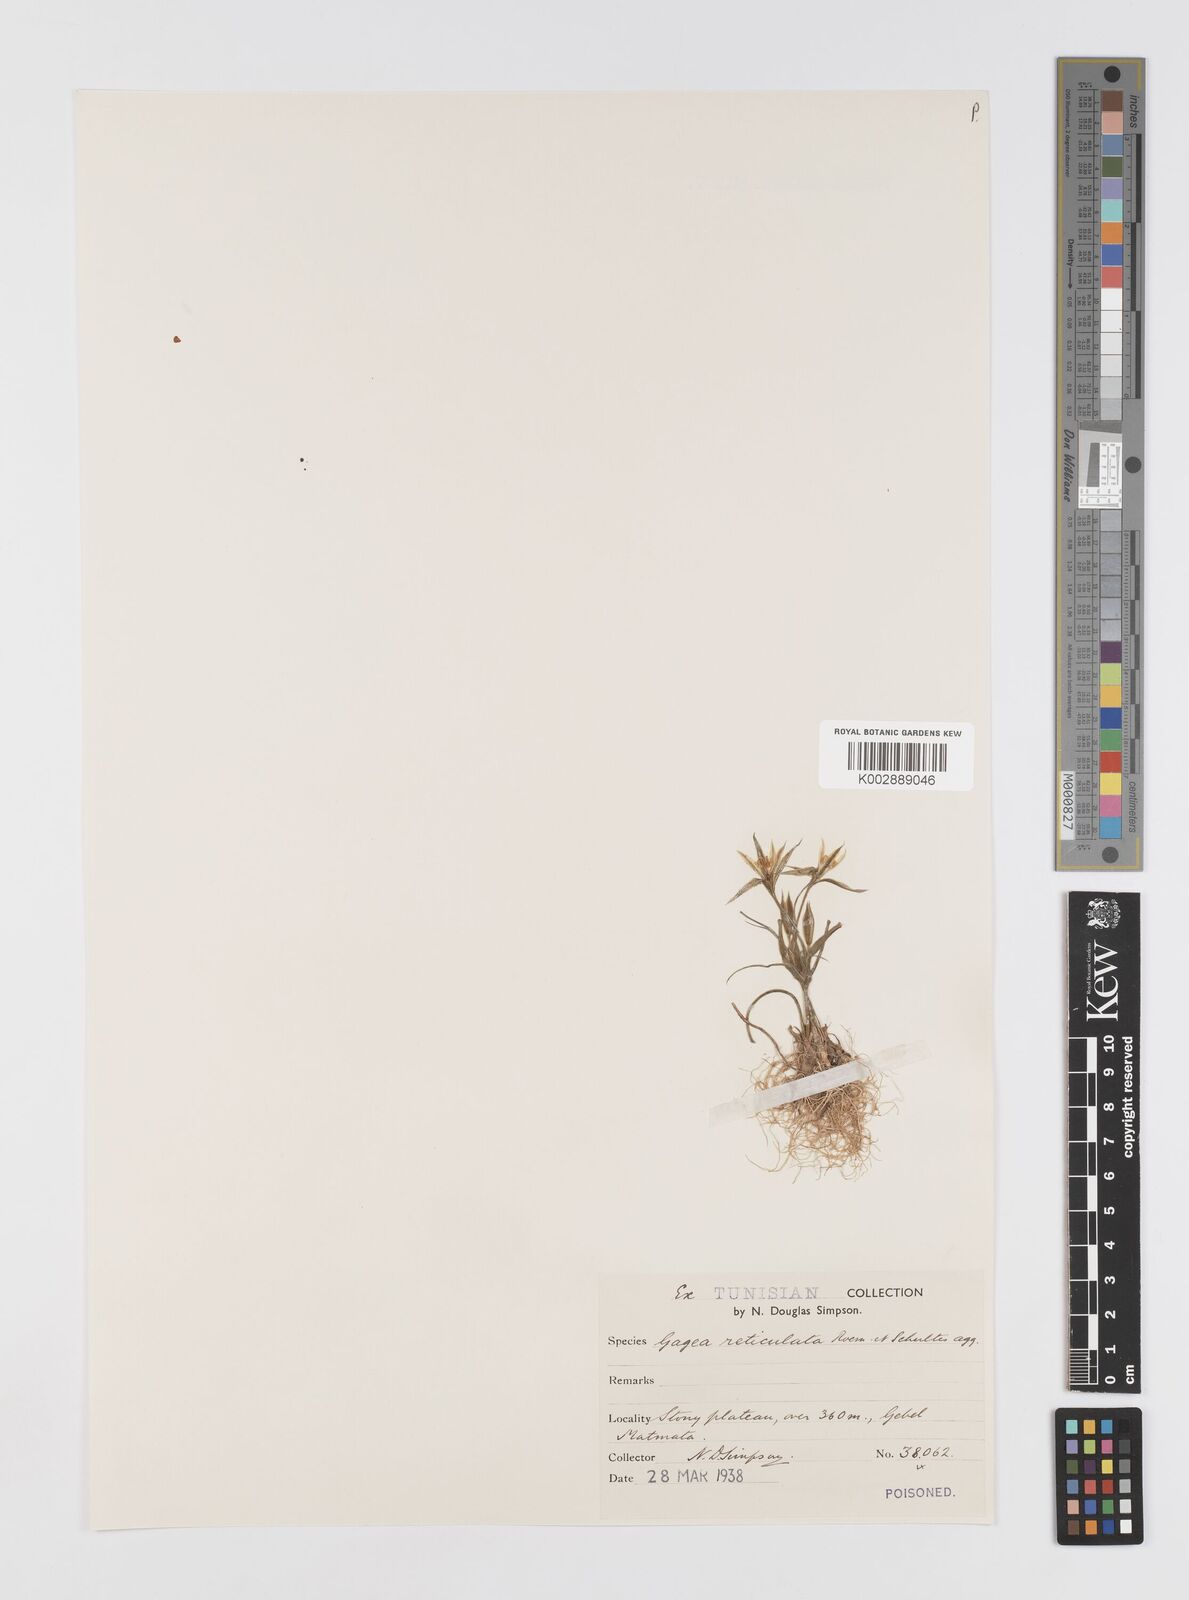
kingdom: Plantae
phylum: Tracheophyta
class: Liliopsida
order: Liliales
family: Liliaceae
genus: Gagea
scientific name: Gagea reticulata
